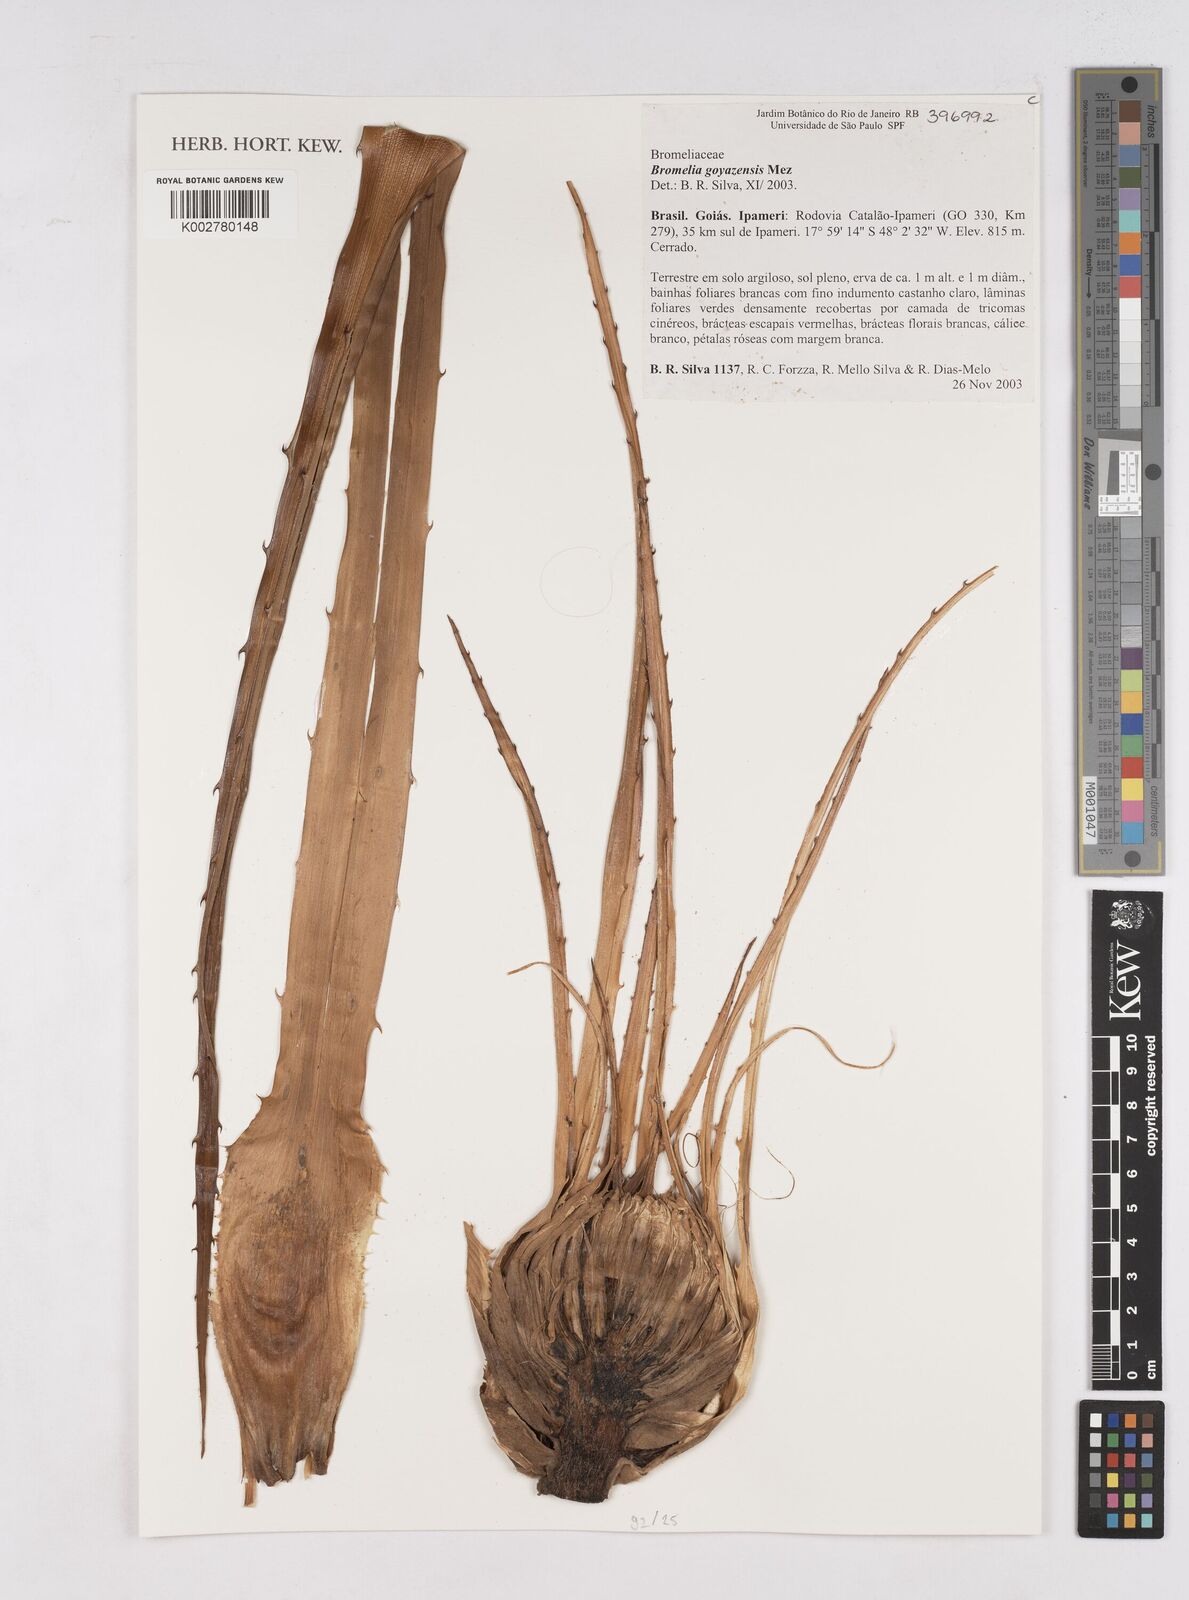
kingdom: Plantae
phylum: Tracheophyta
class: Liliopsida
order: Poales
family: Bromeliaceae
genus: Bromelia
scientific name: Bromelia goyazensis
